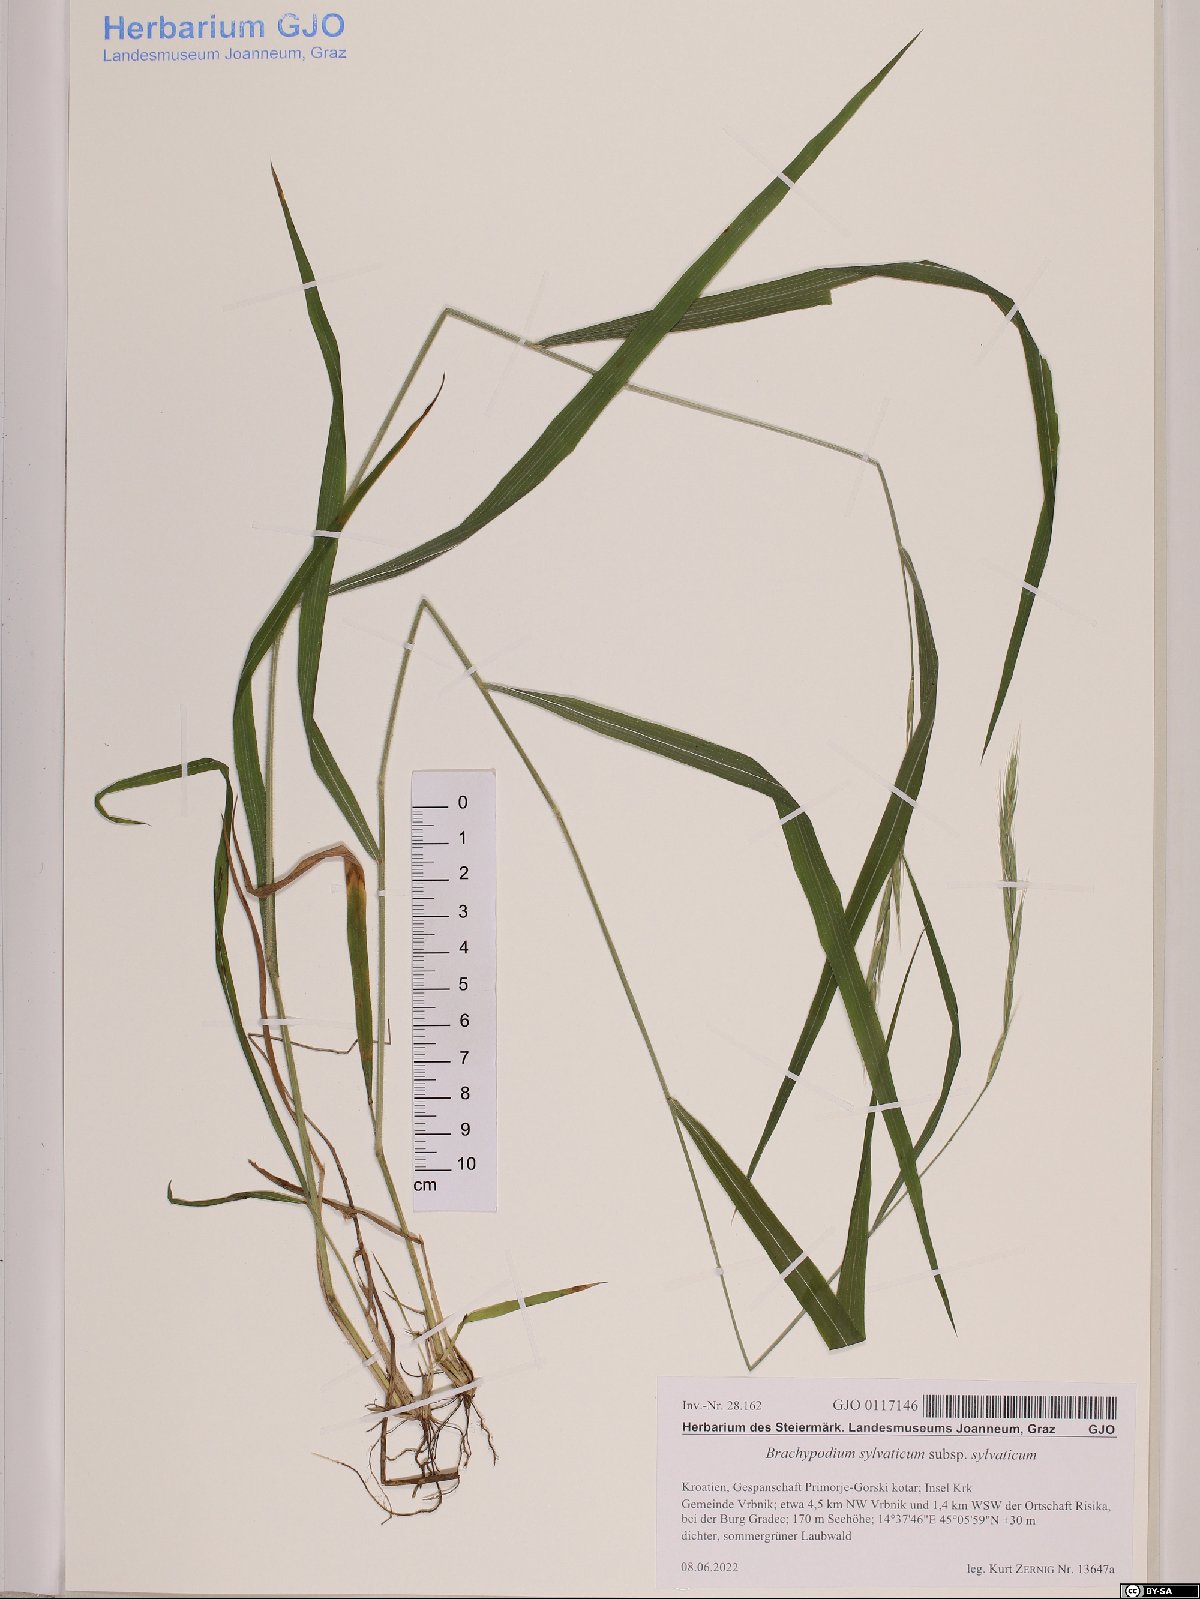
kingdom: Plantae
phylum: Tracheophyta
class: Liliopsida
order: Poales
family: Poaceae
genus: Brachypodium
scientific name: Brachypodium sylvaticum
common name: False-brome
